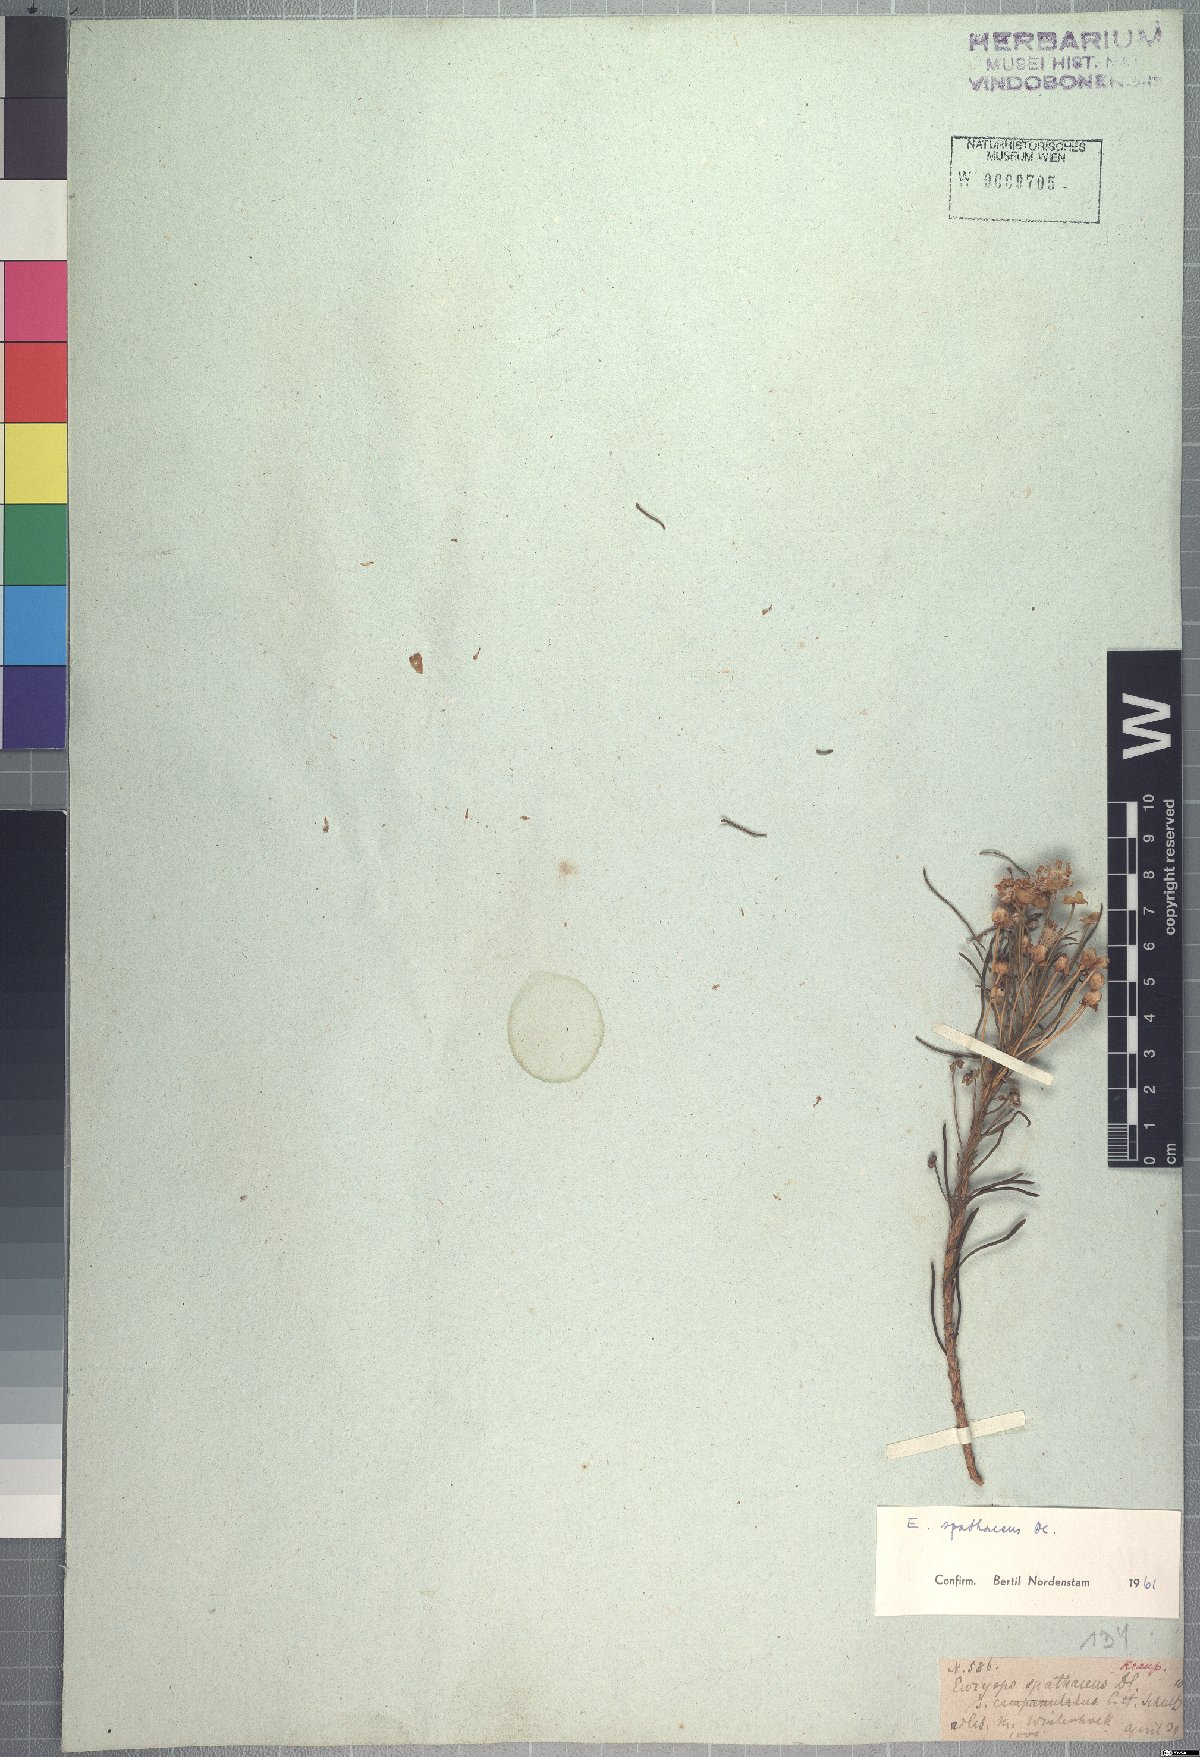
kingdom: Plantae
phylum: Tracheophyta
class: Magnoliopsida
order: Asterales
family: Asteraceae
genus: Euryops
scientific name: Euryops spathaceus
